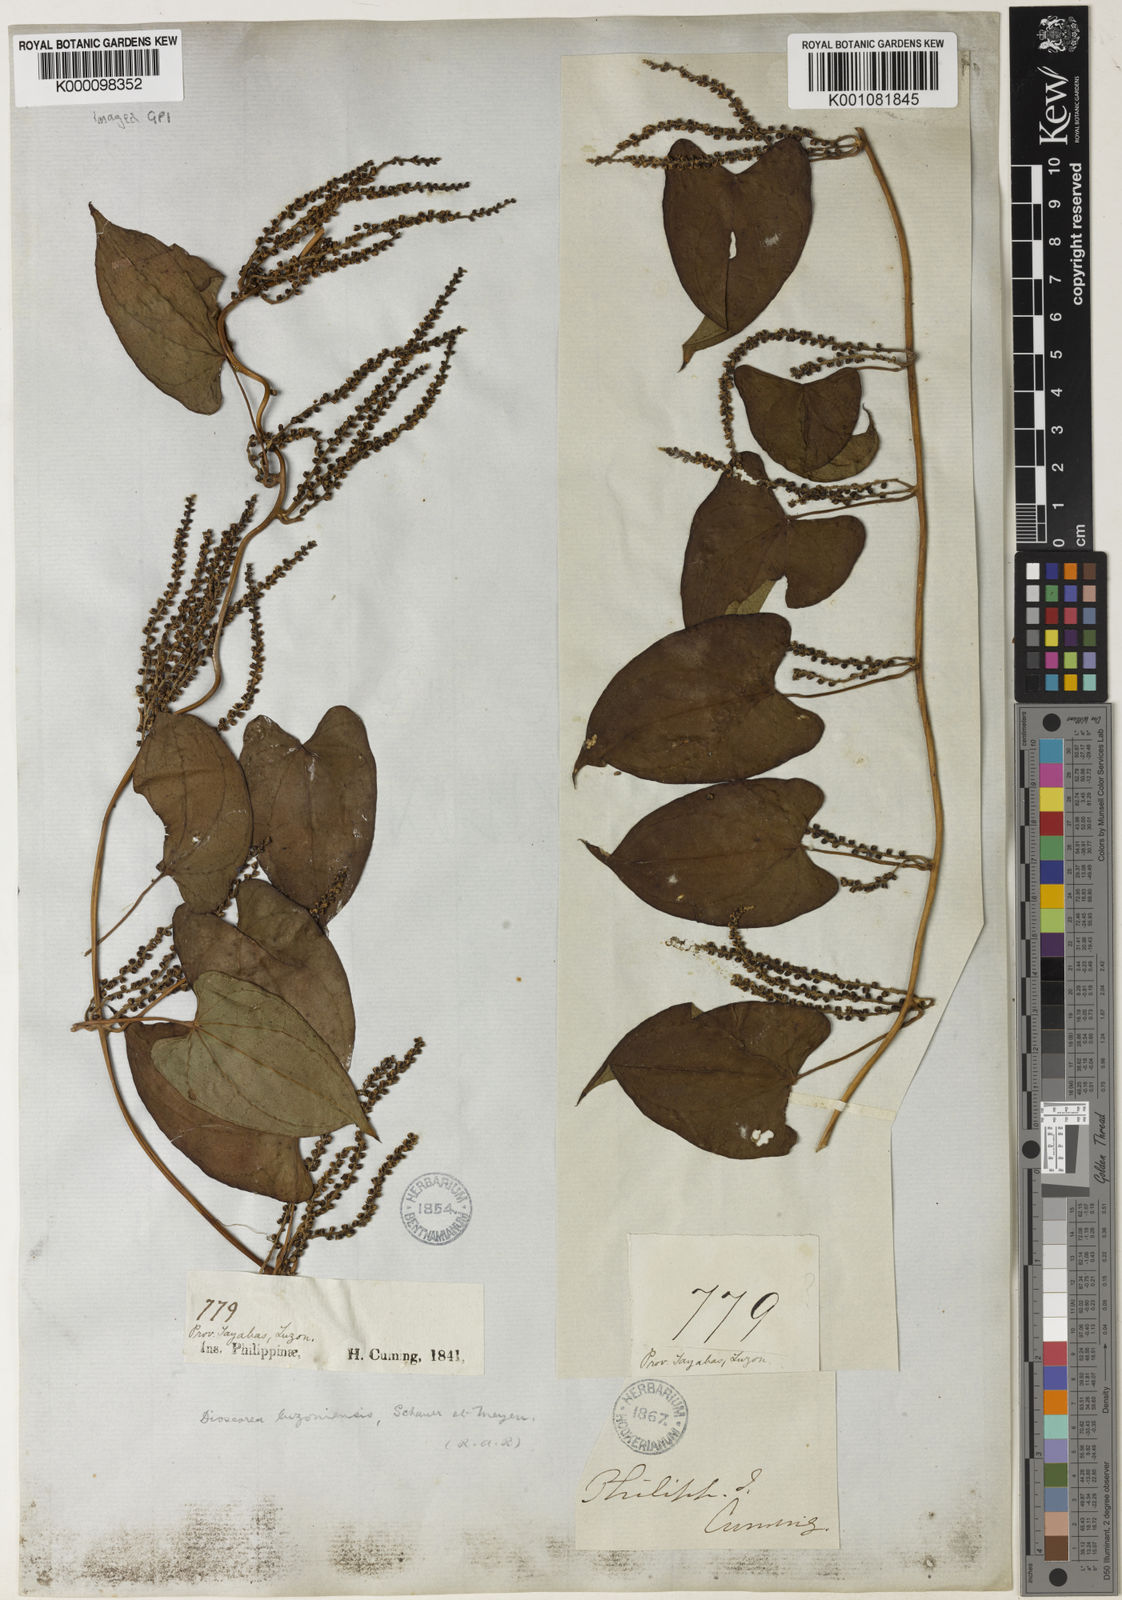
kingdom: Plantae
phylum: Tracheophyta
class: Liliopsida
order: Dioscoreales
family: Dioscoreaceae
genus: Dioscorea
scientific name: Dioscorea luzonensis
